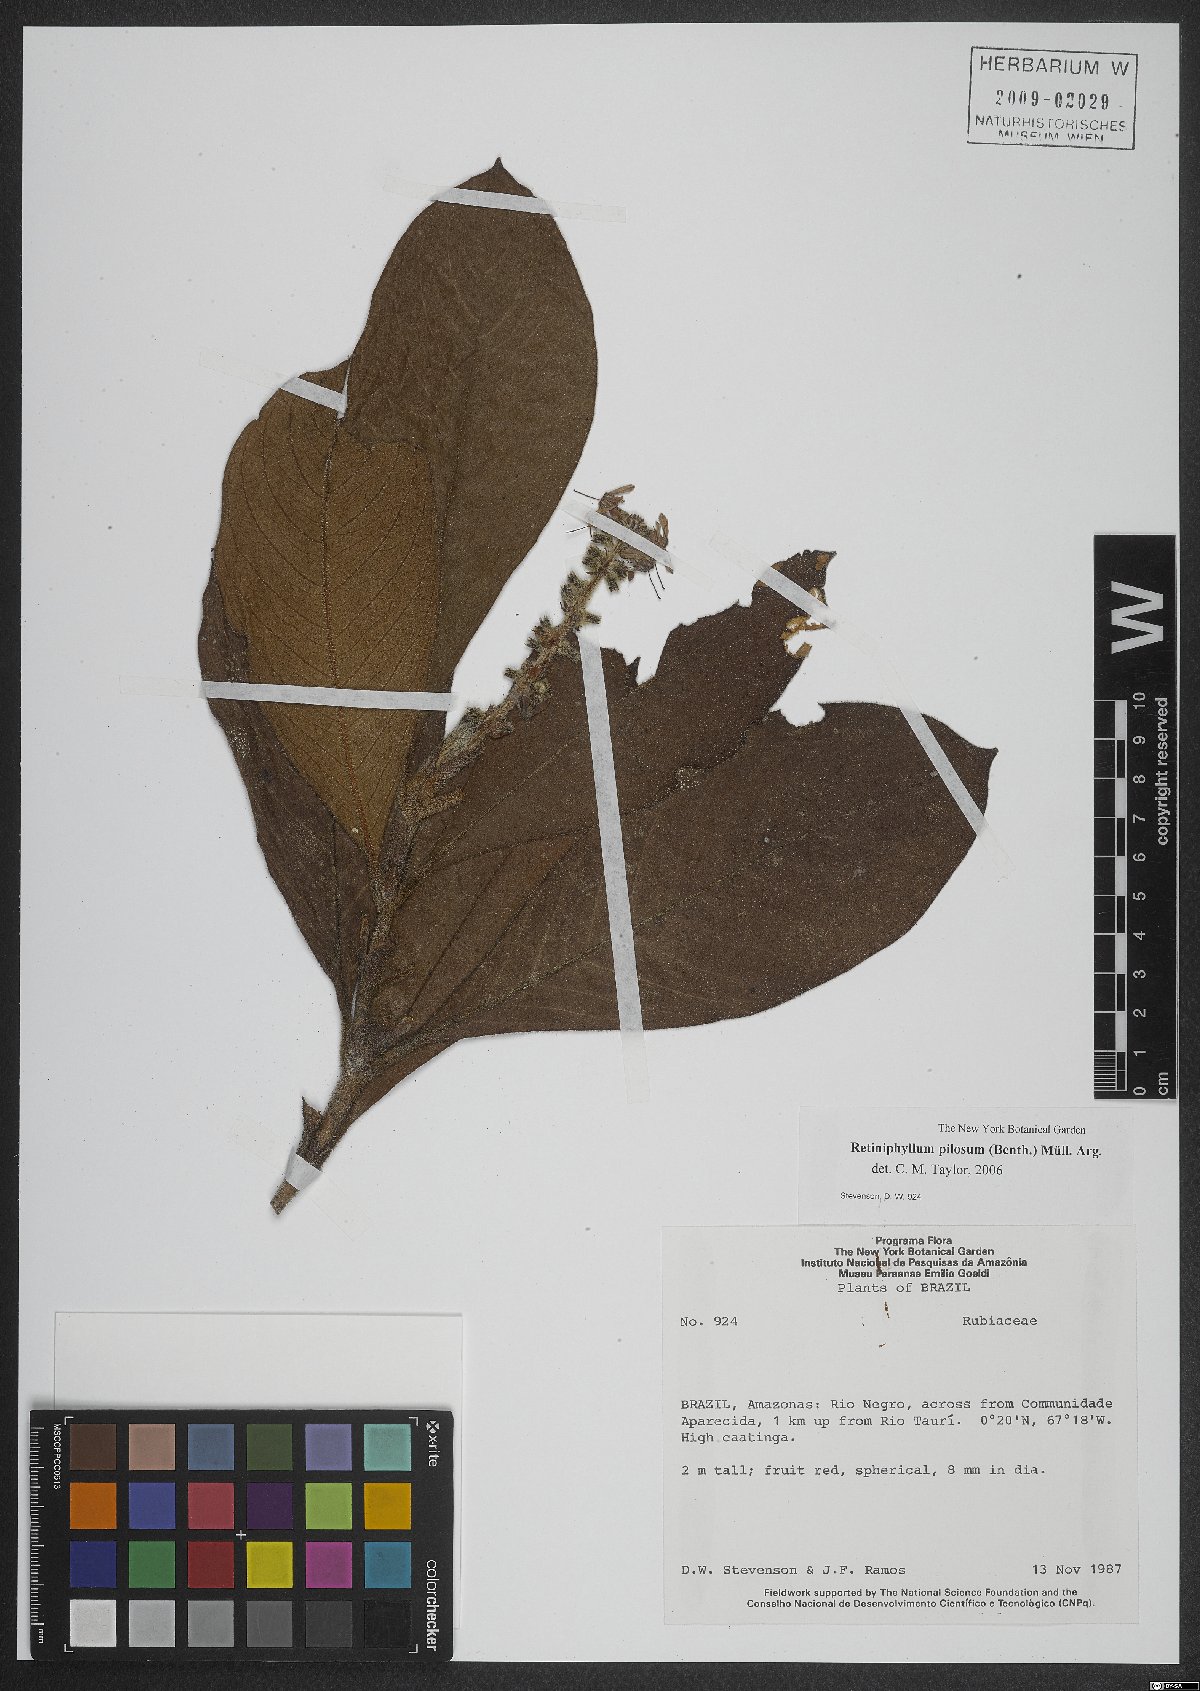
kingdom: Plantae
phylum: Tracheophyta
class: Magnoliopsida
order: Gentianales
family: Rubiaceae
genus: Retiniphyllum
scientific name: Retiniphyllum pilosum
